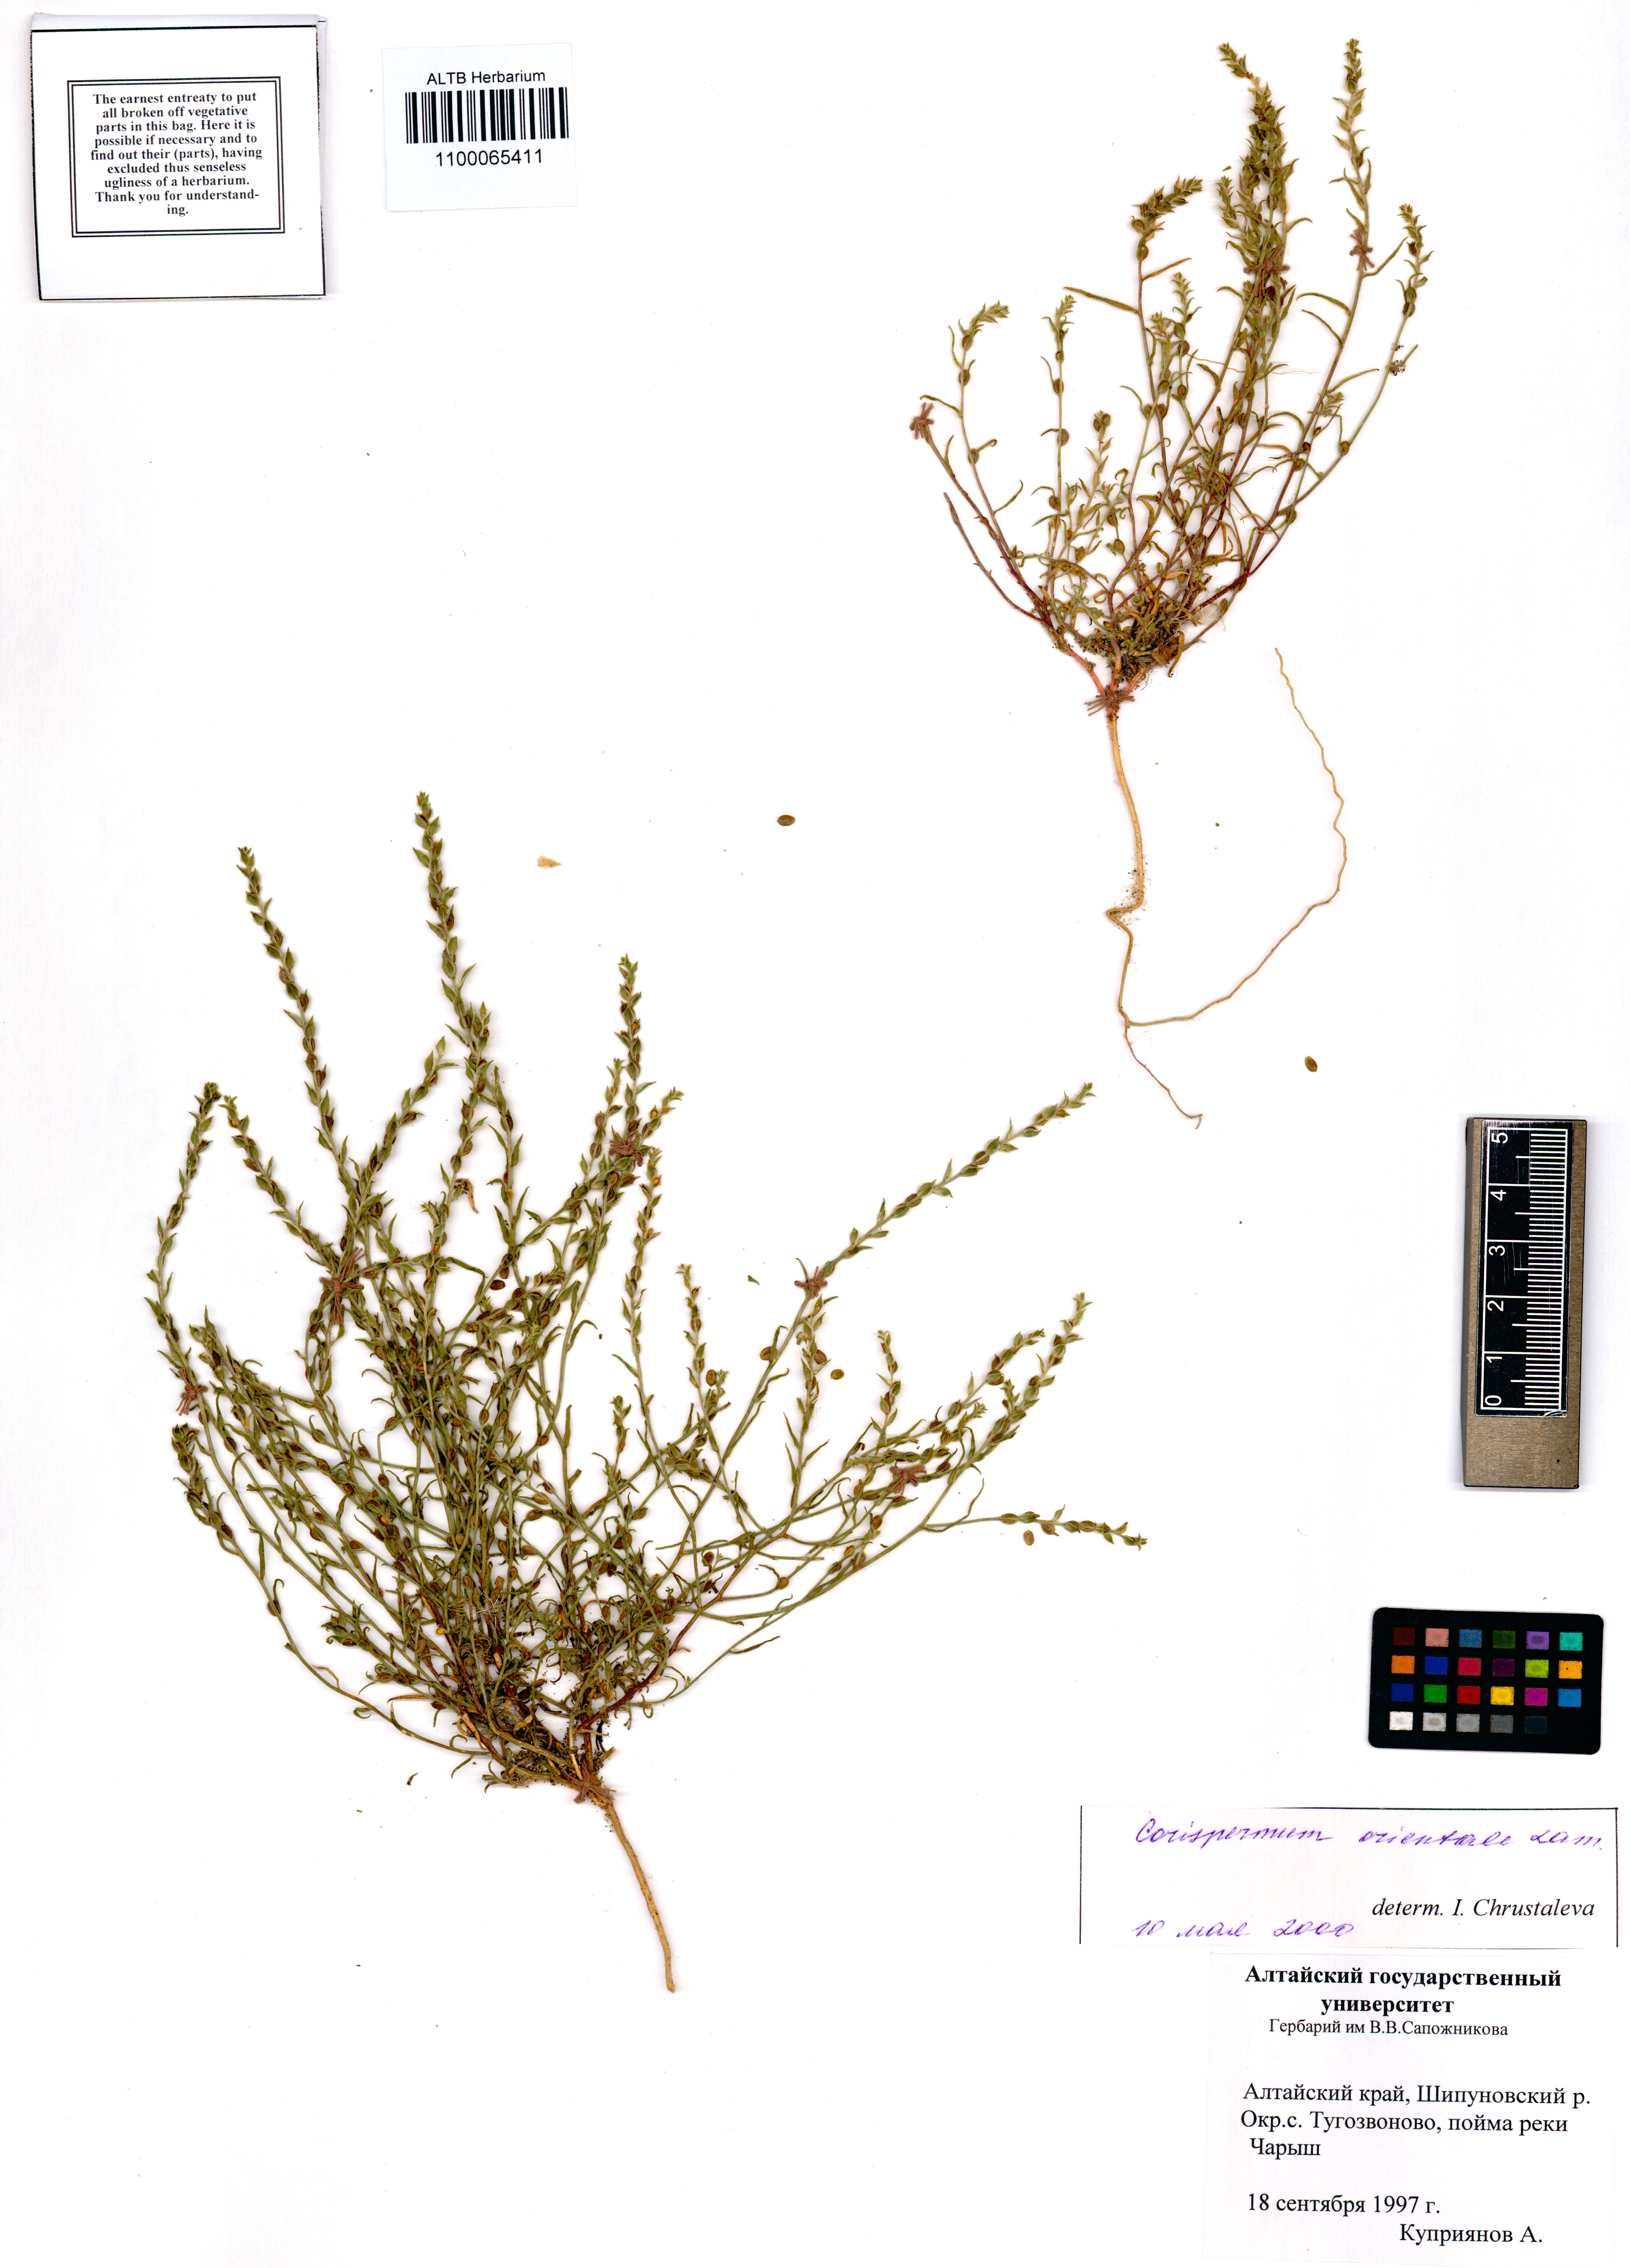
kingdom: Plantae
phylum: Tracheophyta
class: Magnoliopsida
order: Caryophyllales
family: Amaranthaceae
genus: Corispermum
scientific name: Corispermum aralocaspicum
